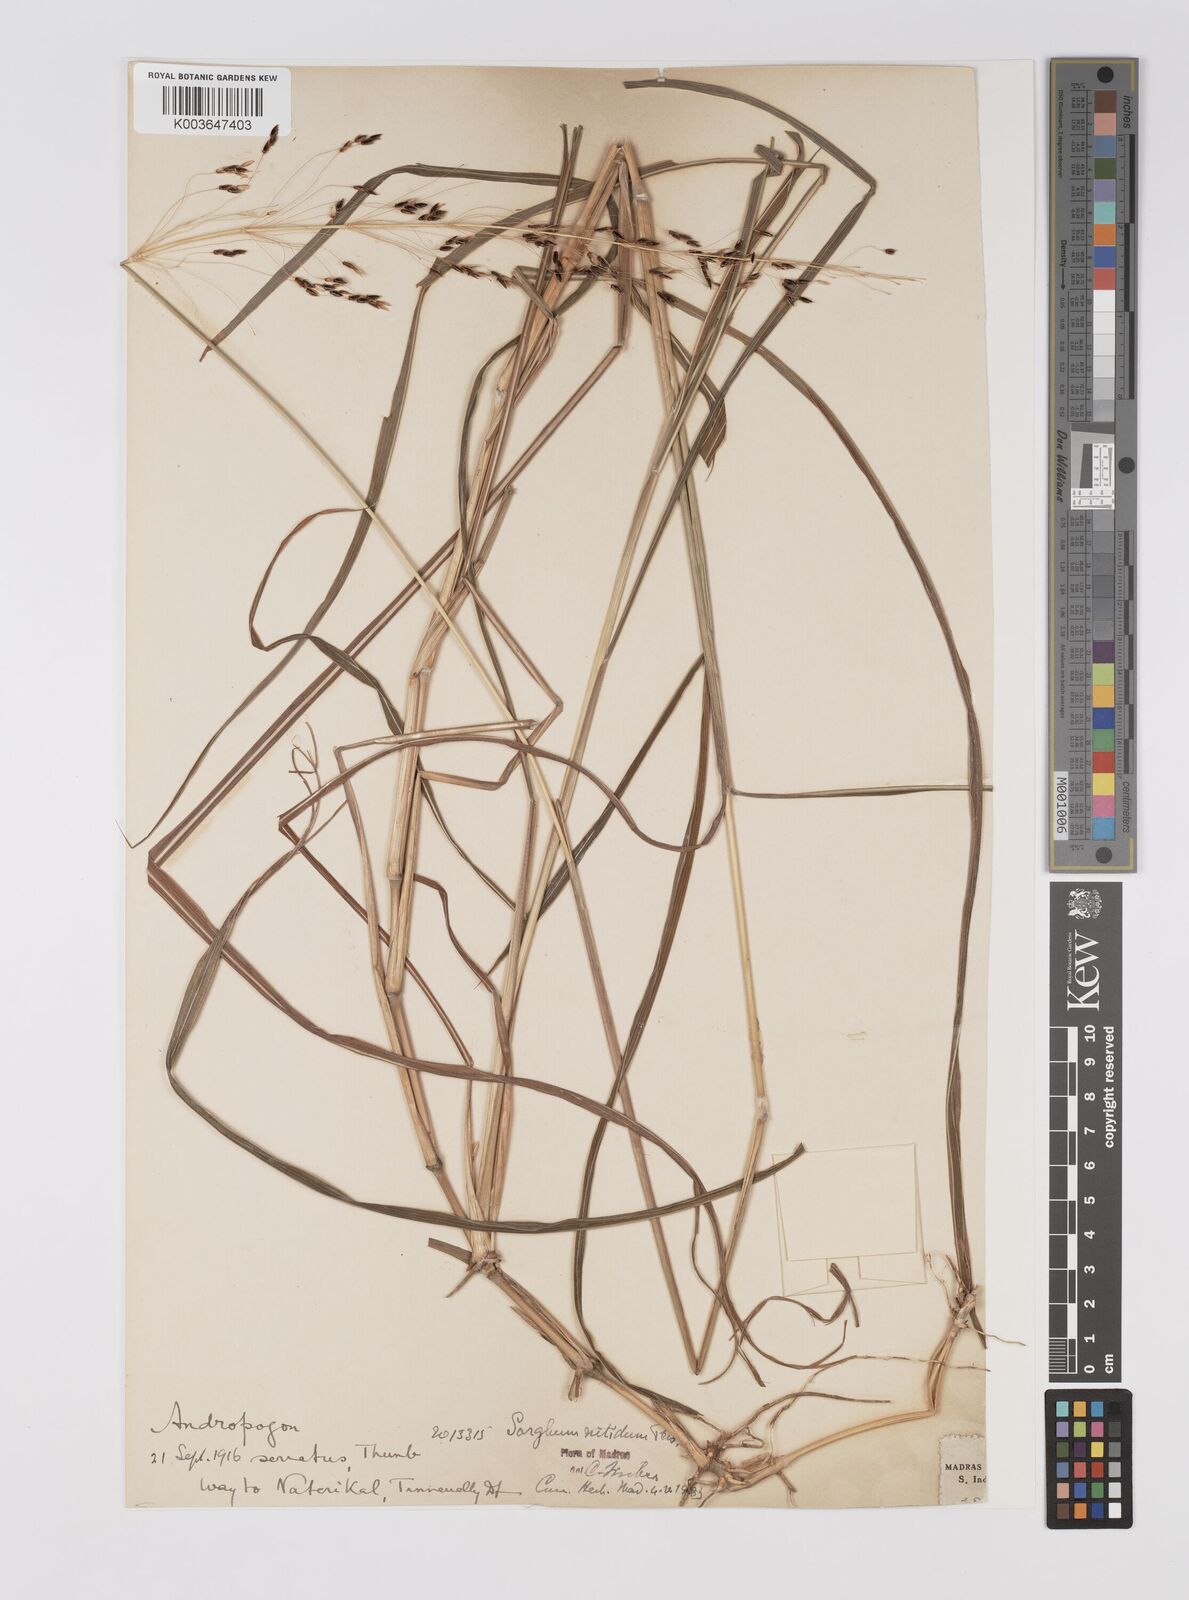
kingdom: Plantae
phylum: Tracheophyta
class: Liliopsida
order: Poales
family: Poaceae
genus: Sorghum
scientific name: Sorghum nitidum
